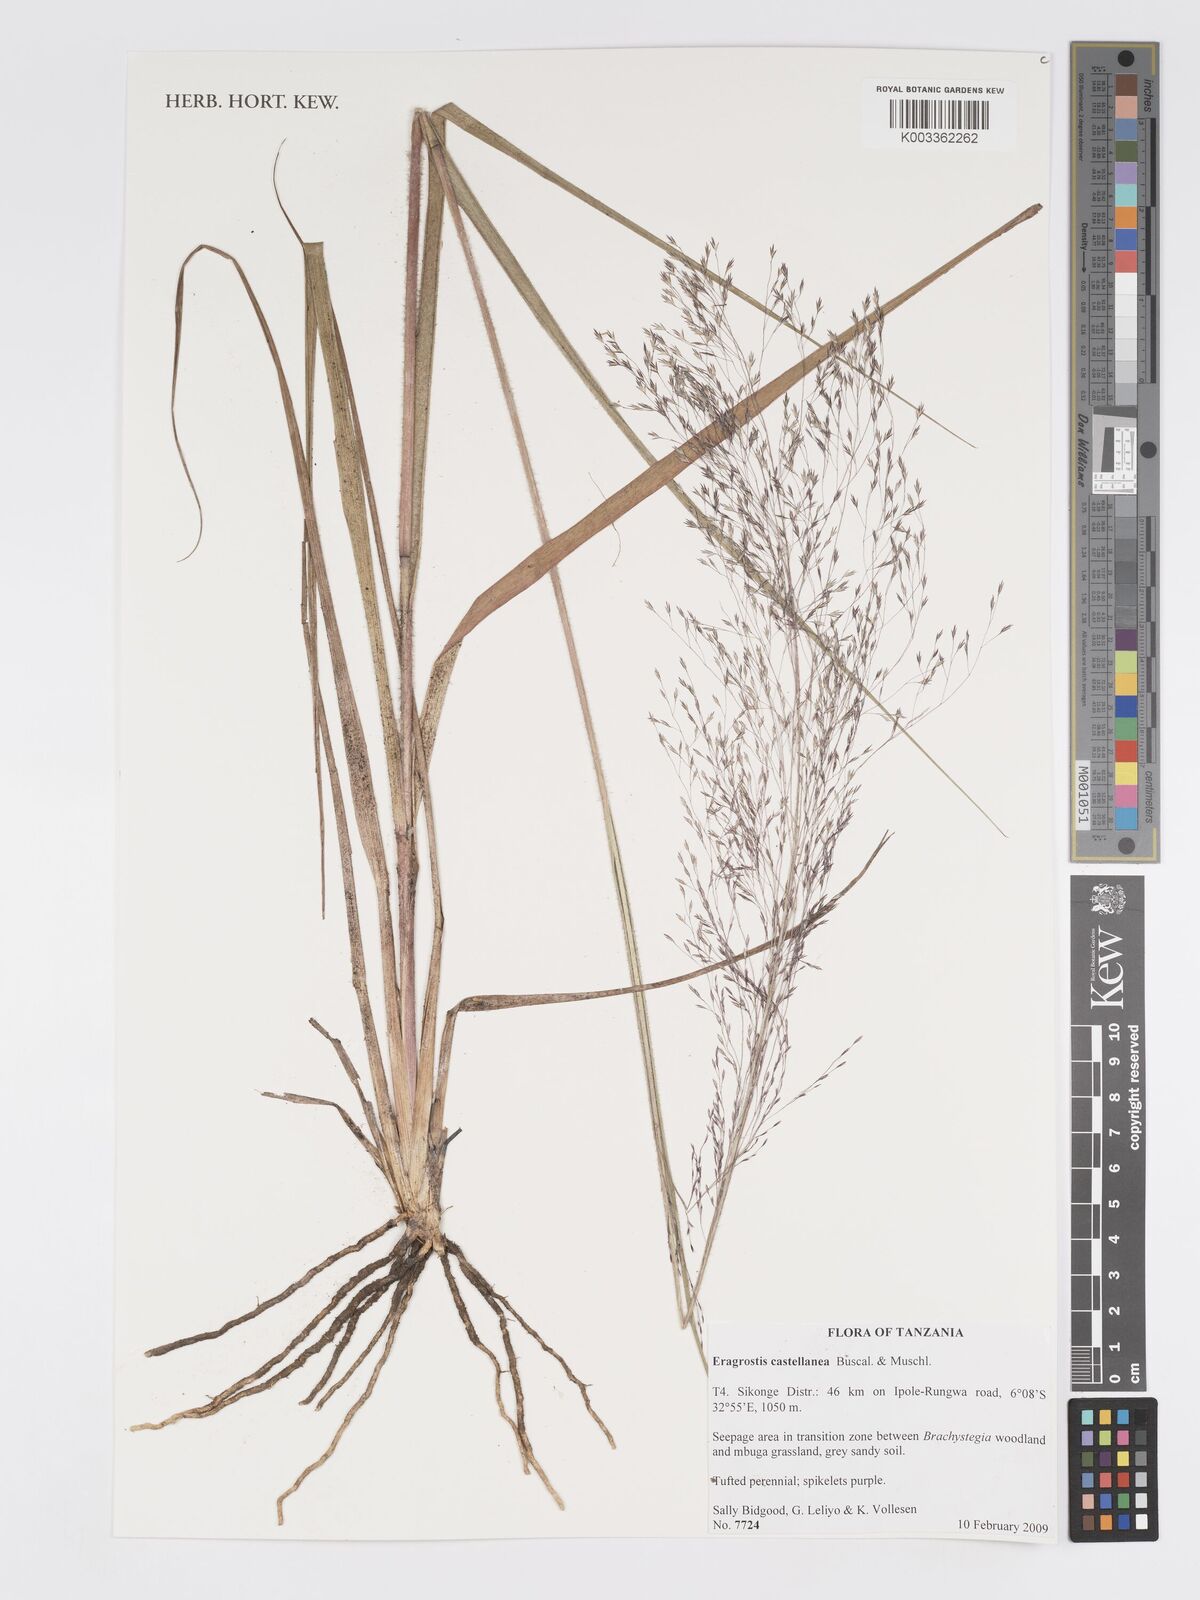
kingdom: Plantae
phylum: Tracheophyta
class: Liliopsida
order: Poales
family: Poaceae
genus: Eragrostis
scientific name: Eragrostis castellaneana
